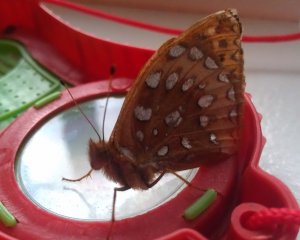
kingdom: Animalia
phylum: Arthropoda
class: Insecta
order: Lepidoptera
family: Nymphalidae
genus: Speyeria
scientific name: Speyeria cybele
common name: Great Spangled Fritillary
